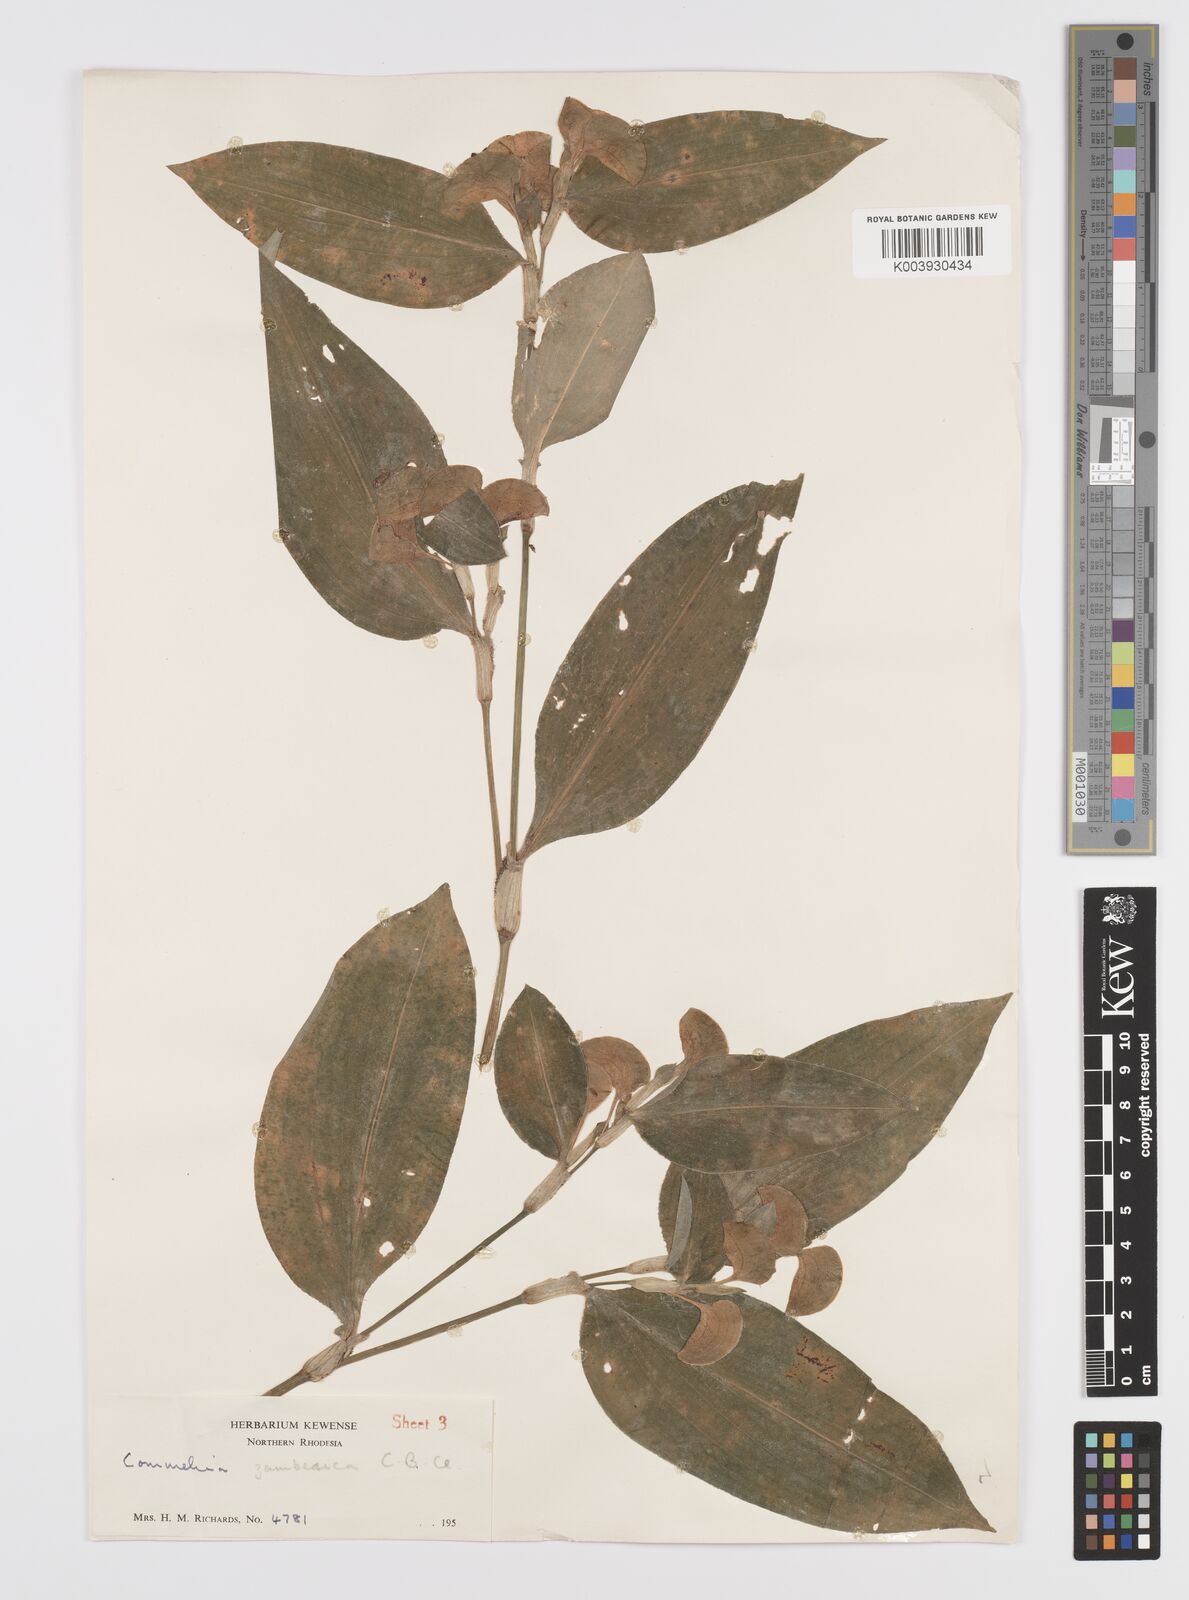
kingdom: Plantae
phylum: Tracheophyta
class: Liliopsida
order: Commelinales
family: Commelinaceae
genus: Commelina
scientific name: Commelina zambesica
